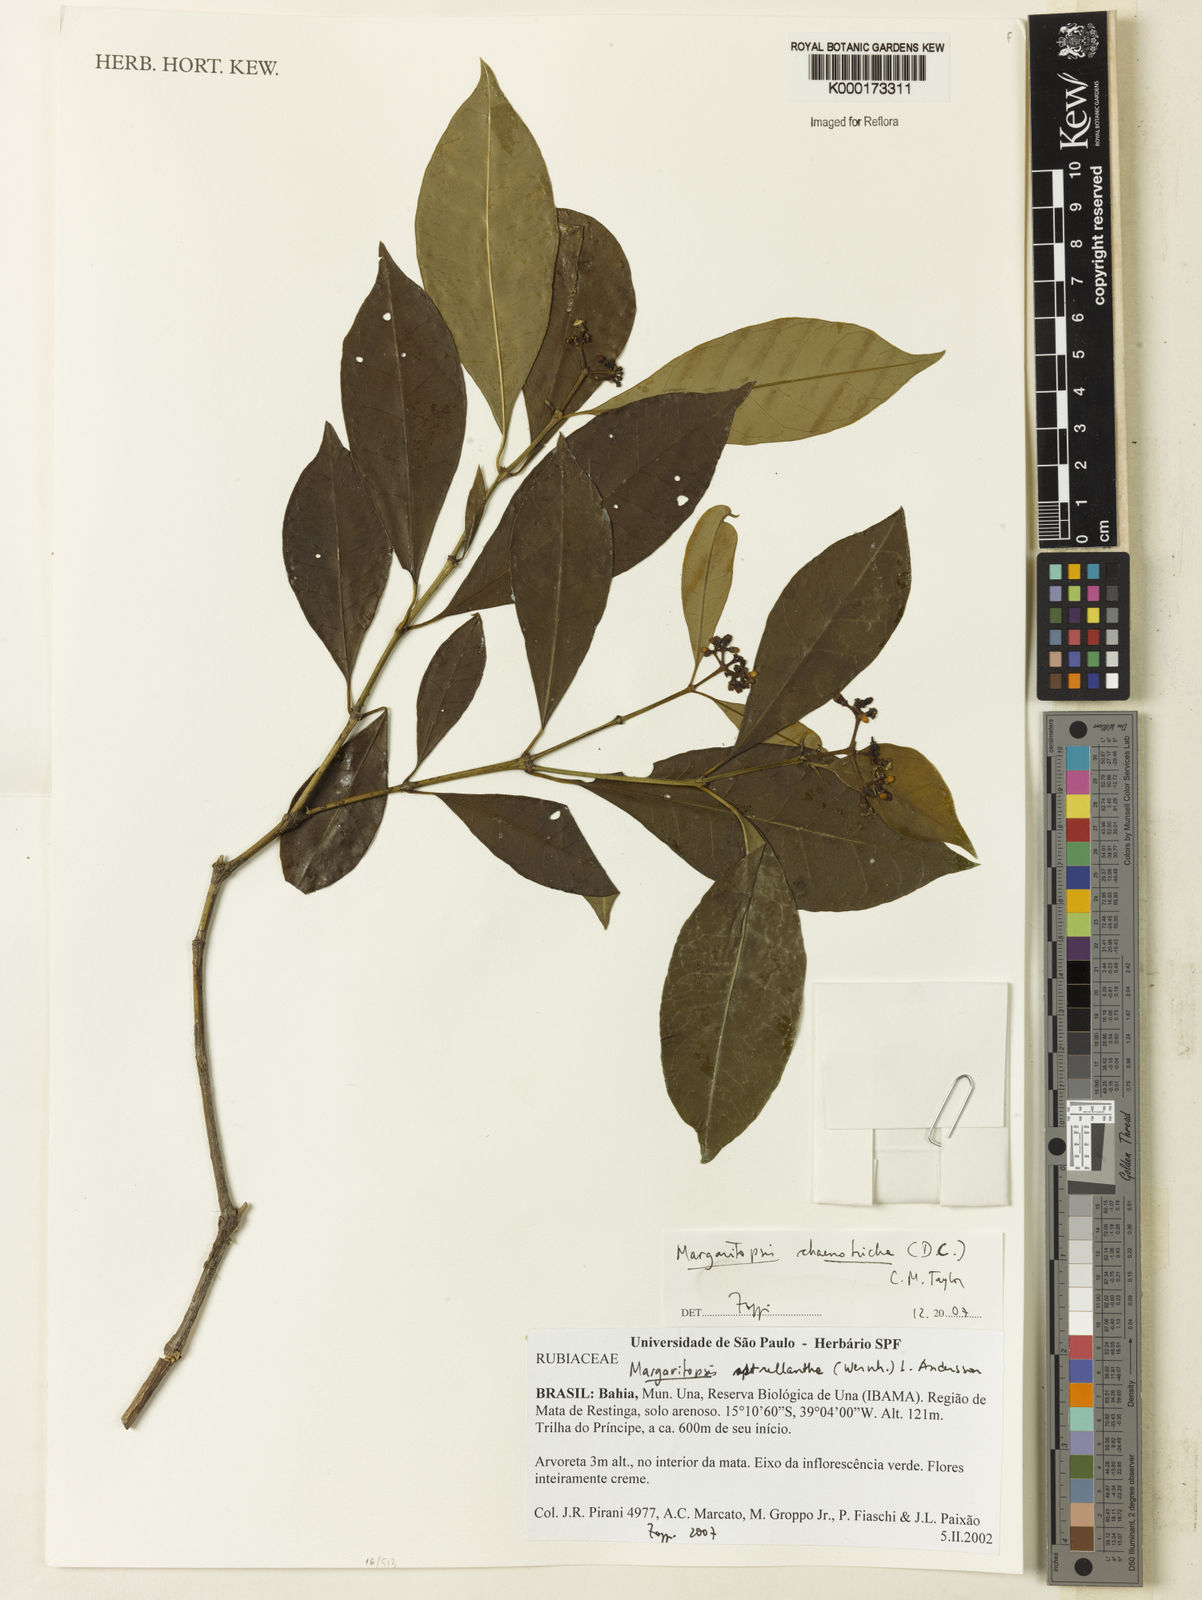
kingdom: Plantae
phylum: Tracheophyta
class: Magnoliopsida
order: Gentianales
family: Rubiaceae
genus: Eumachia
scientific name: Eumachia chaenotricha
